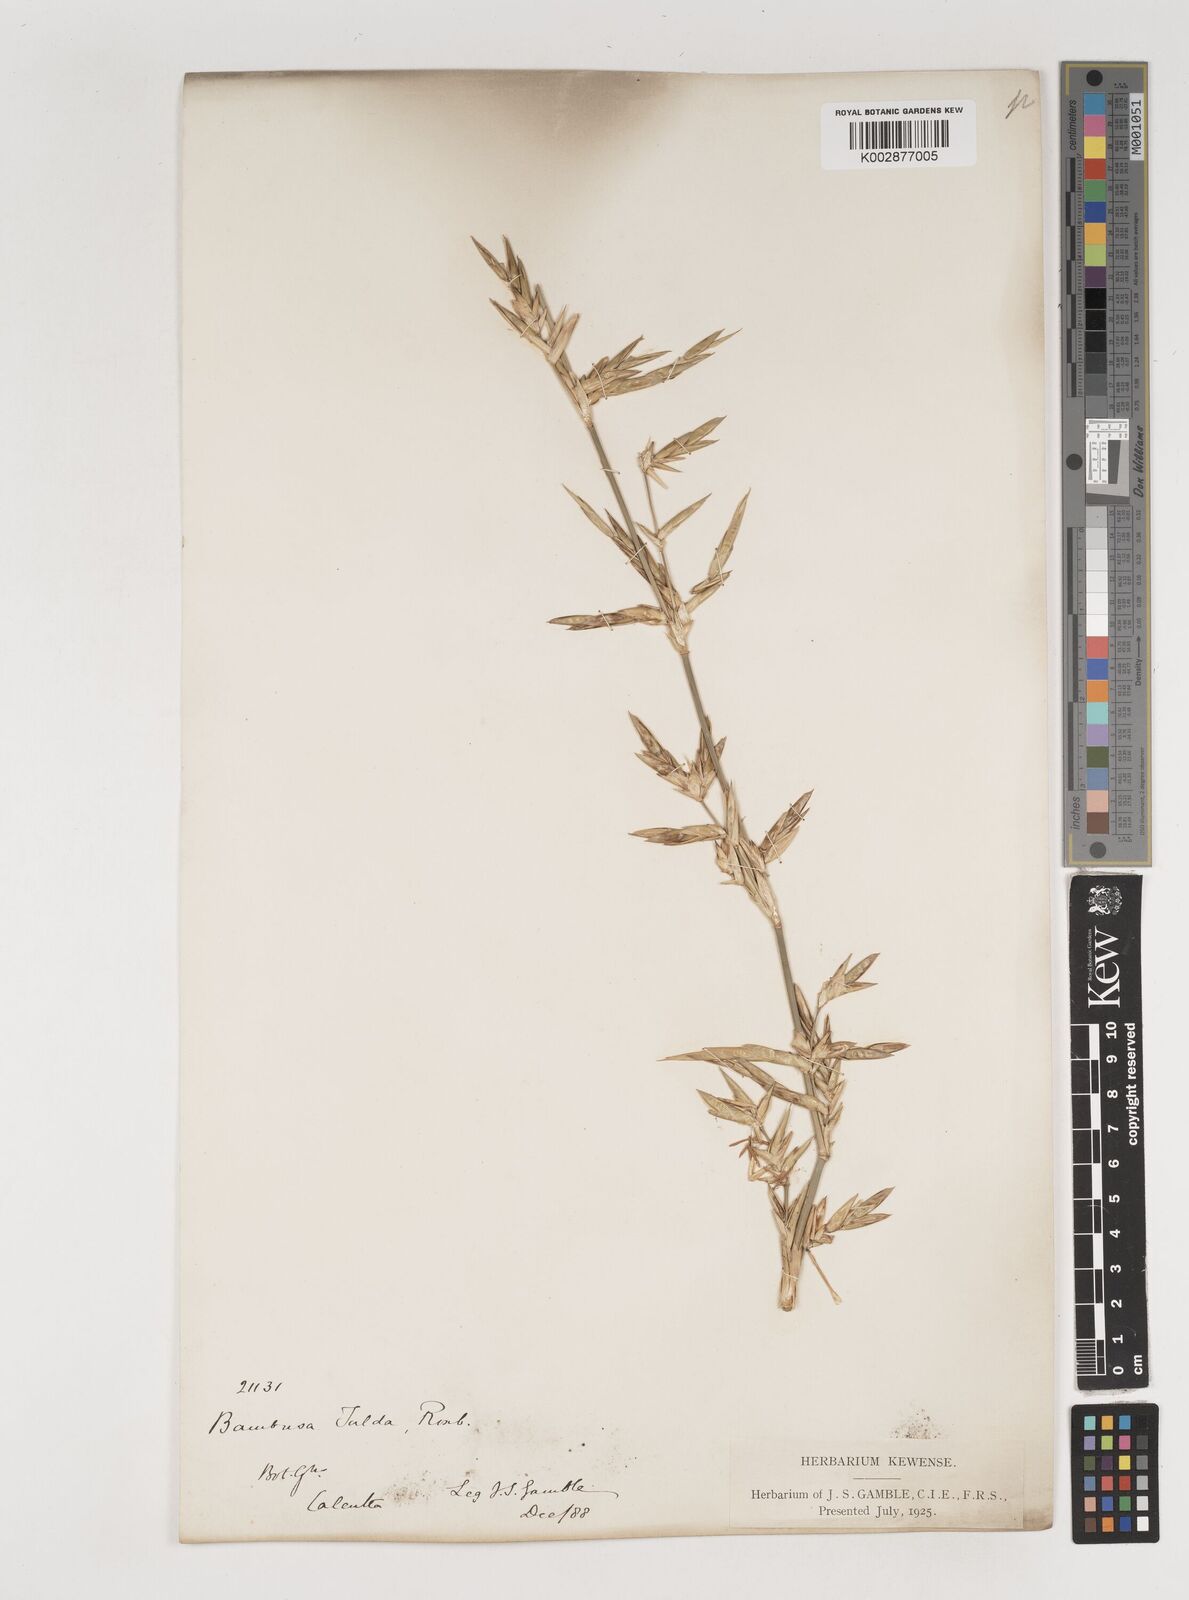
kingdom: Plantae
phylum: Tracheophyta
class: Liliopsida
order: Poales
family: Poaceae
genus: Bambusa
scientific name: Bambusa tulda
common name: Bengal bamboo
